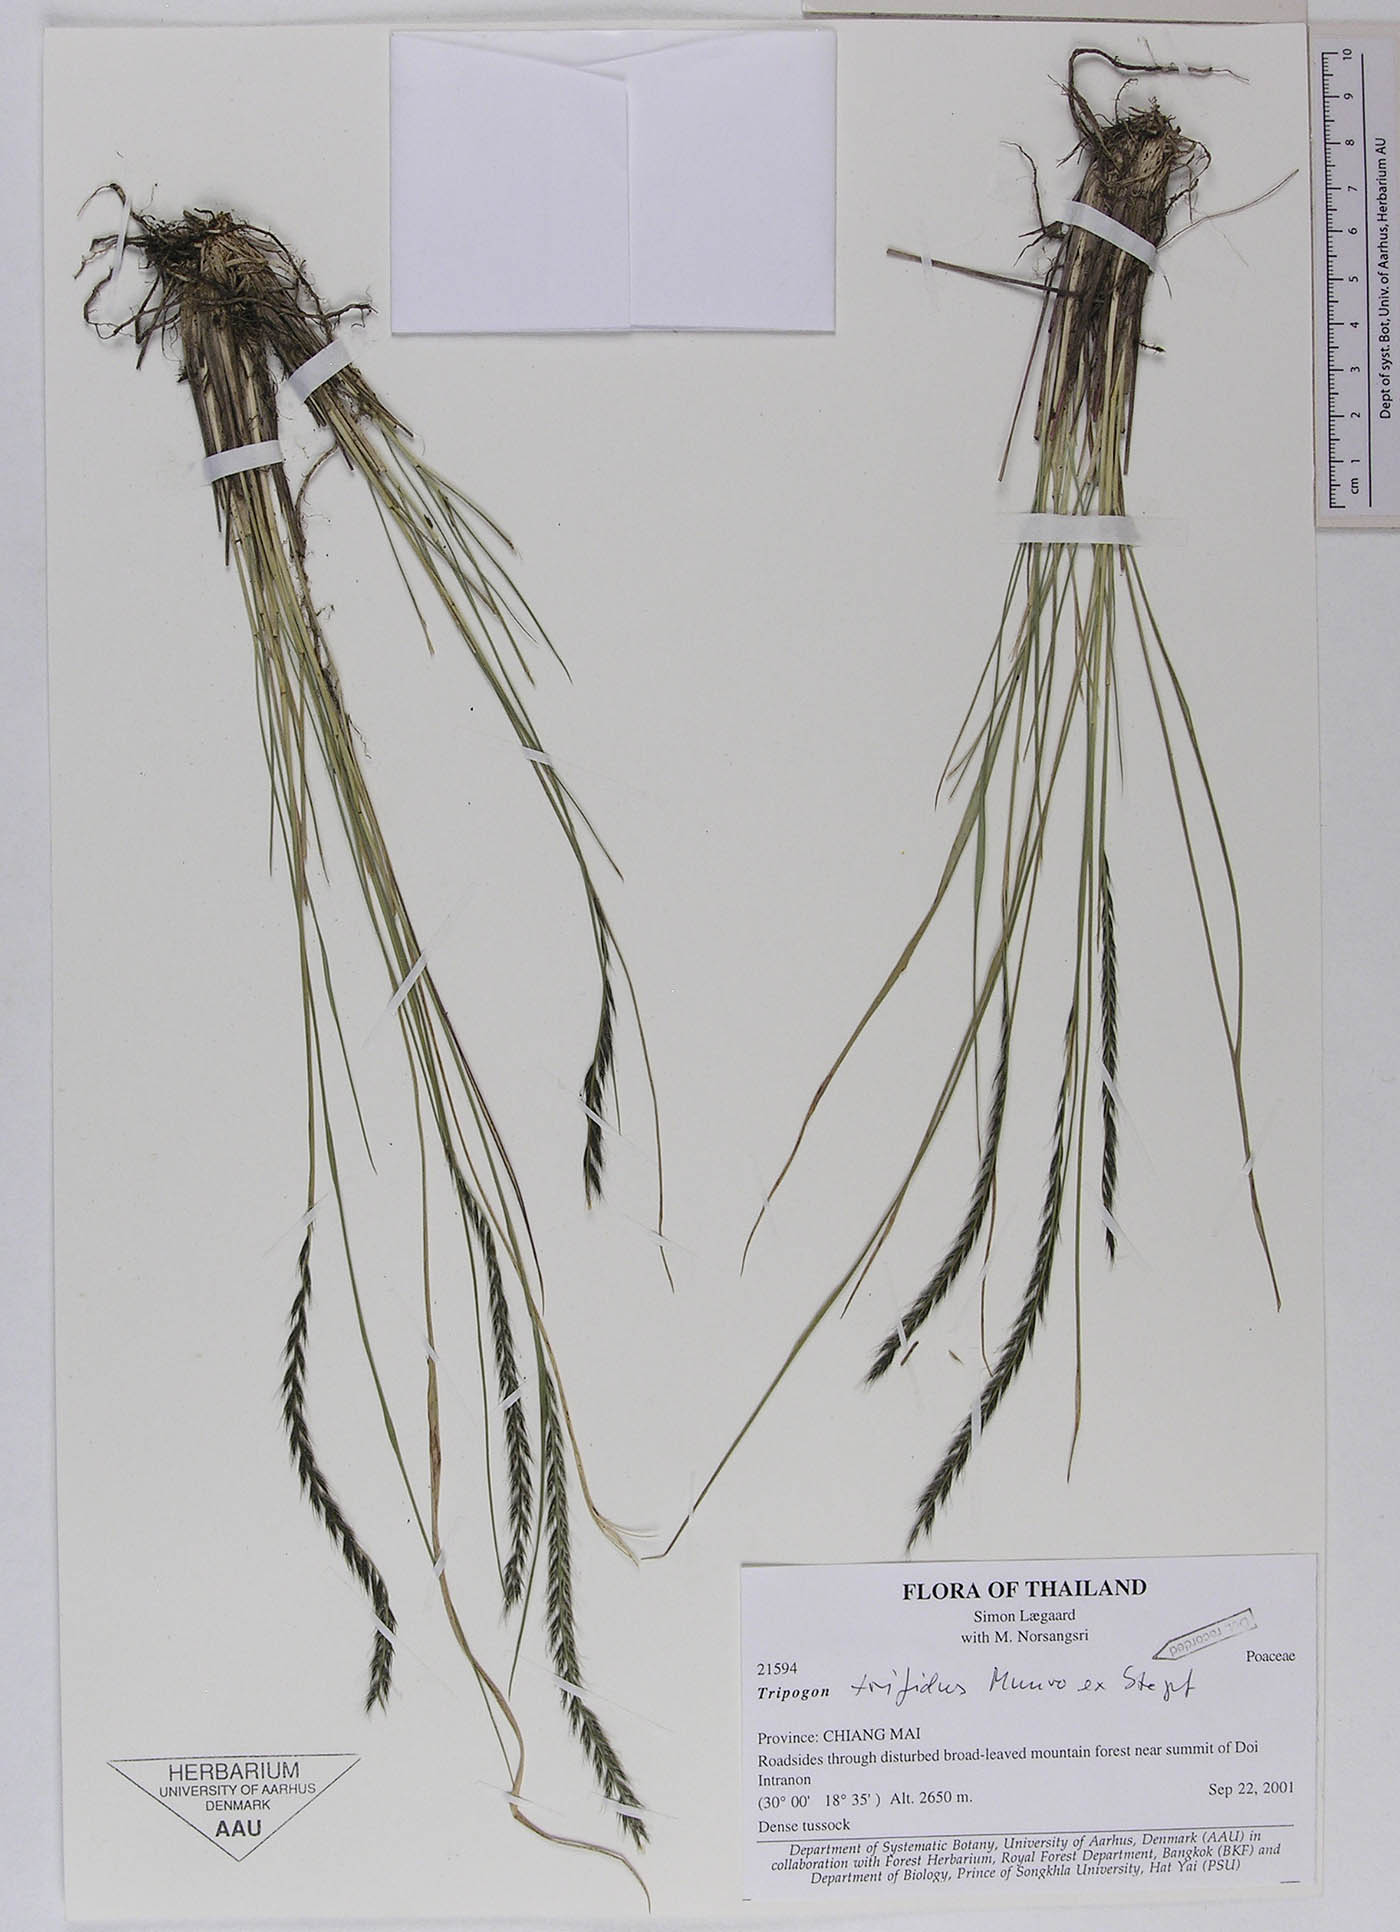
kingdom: Plantae
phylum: Tracheophyta
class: Liliopsida
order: Poales
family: Poaceae
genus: Tripogon
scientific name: Tripogon trifidus
